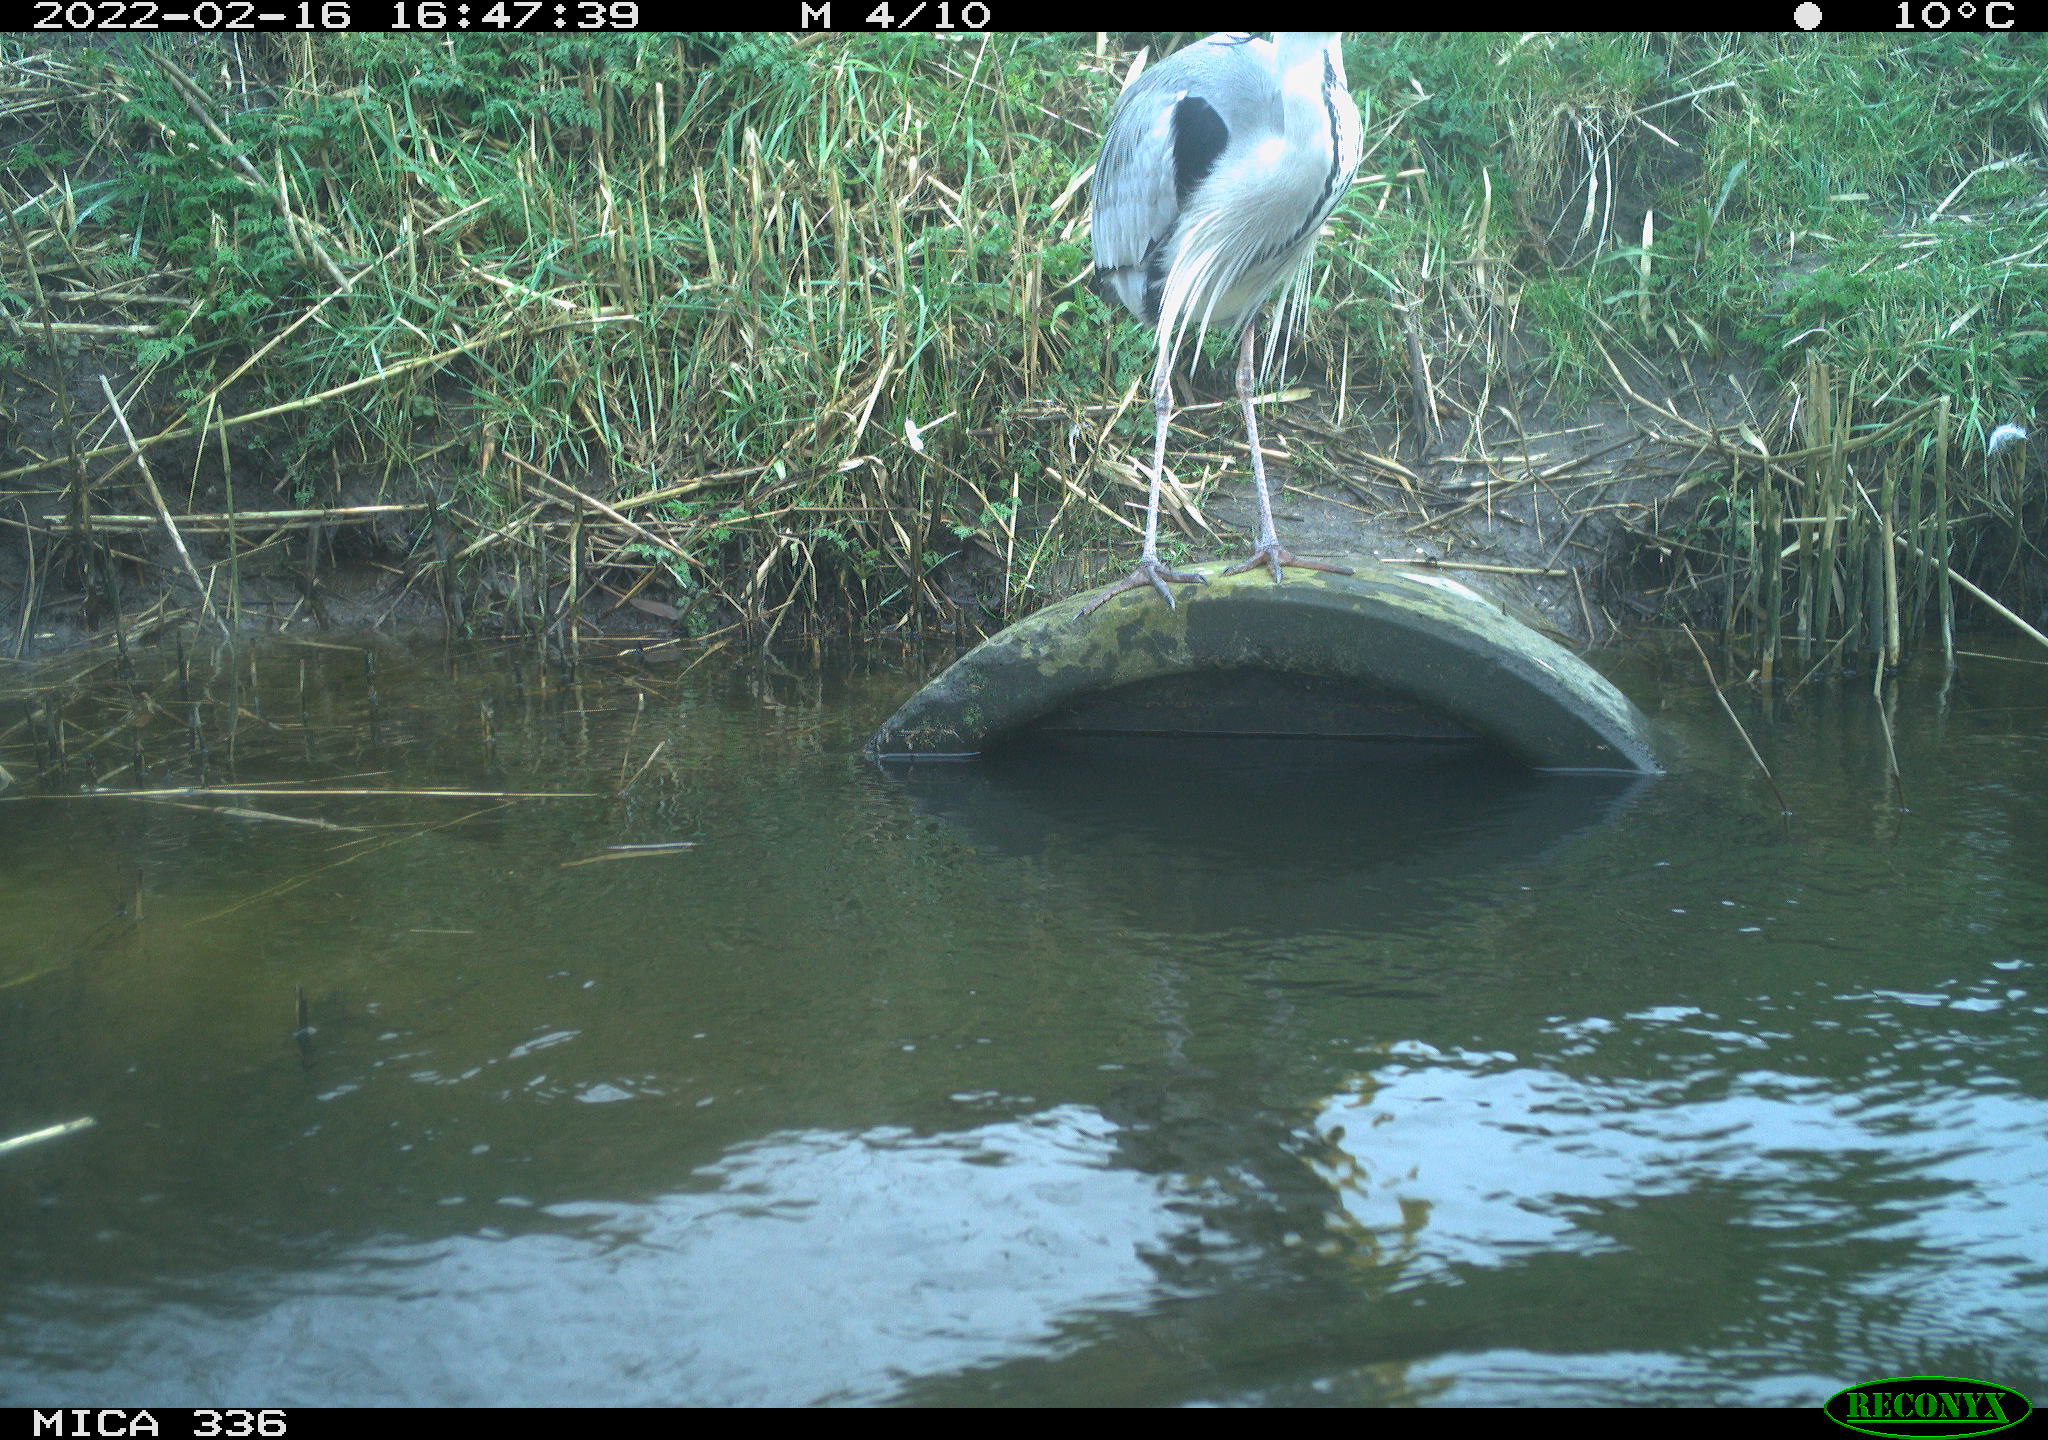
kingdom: Animalia
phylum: Chordata
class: Aves
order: Suliformes
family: Phalacrocoracidae
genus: Phalacrocorax
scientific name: Phalacrocorax carbo
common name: Great cormorant
